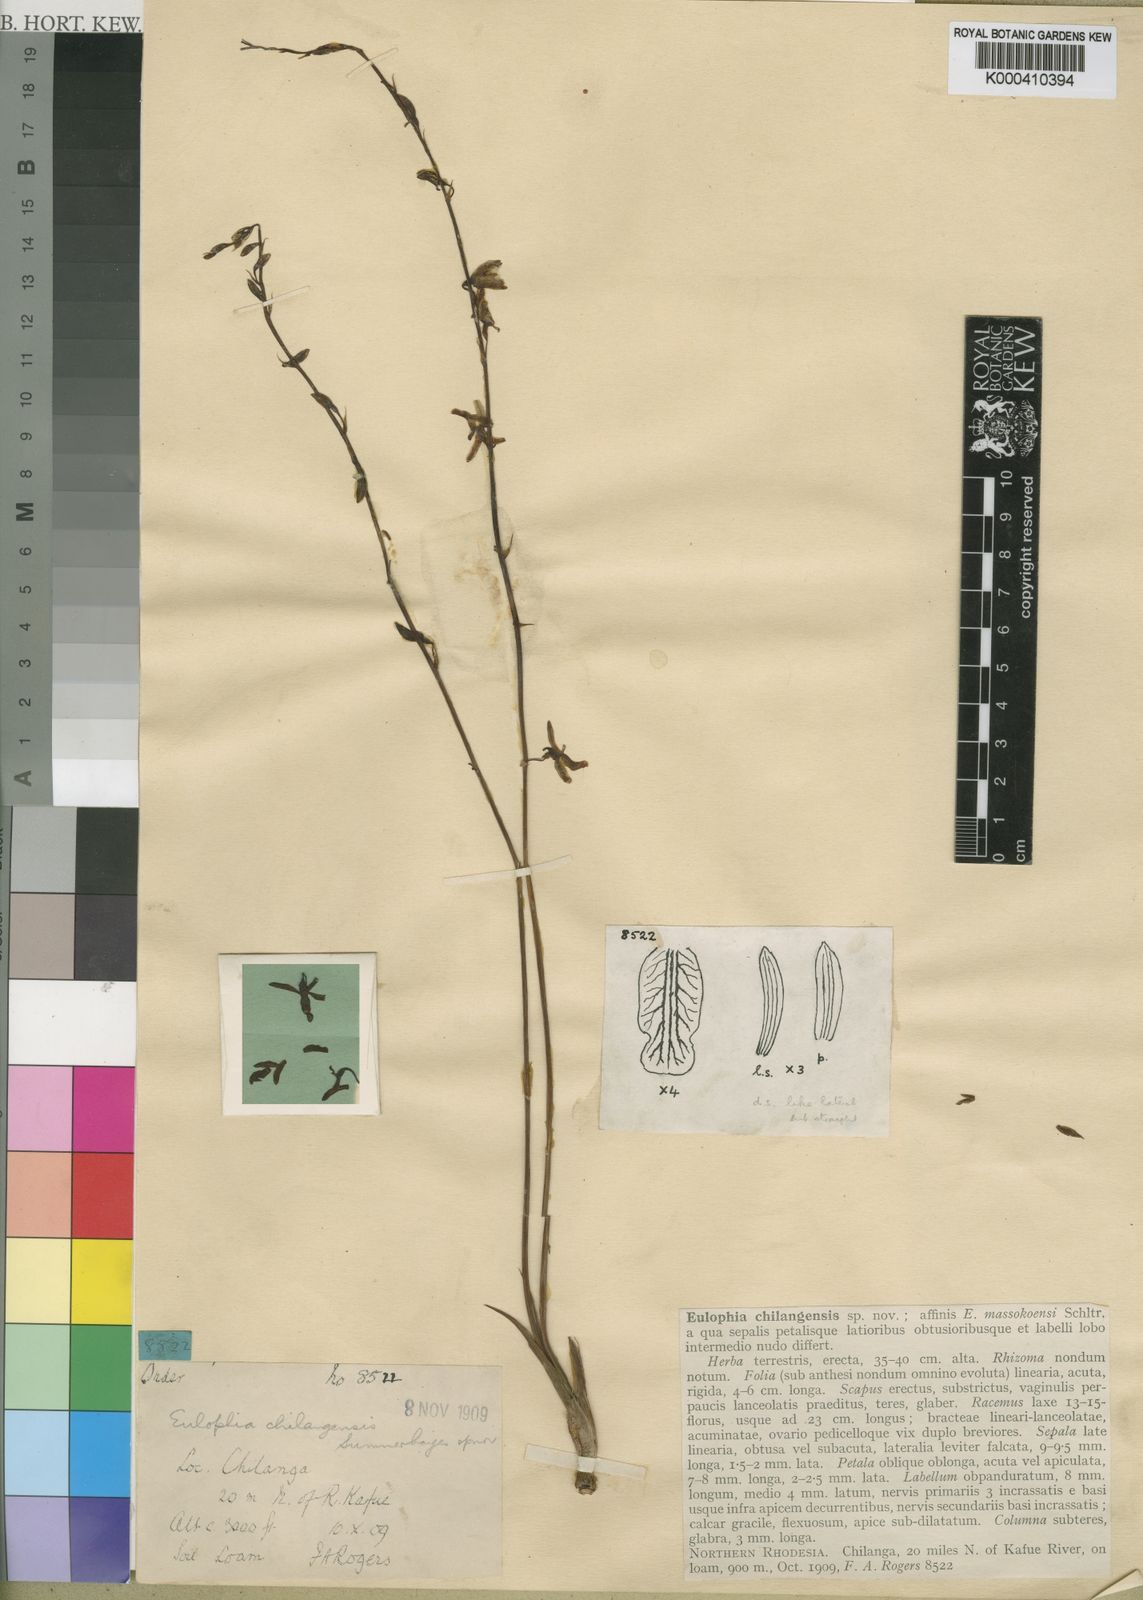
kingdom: Plantae
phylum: Tracheophyta
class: Liliopsida
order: Asparagales
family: Orchidaceae
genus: Eulophia
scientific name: Eulophia chilangensis
